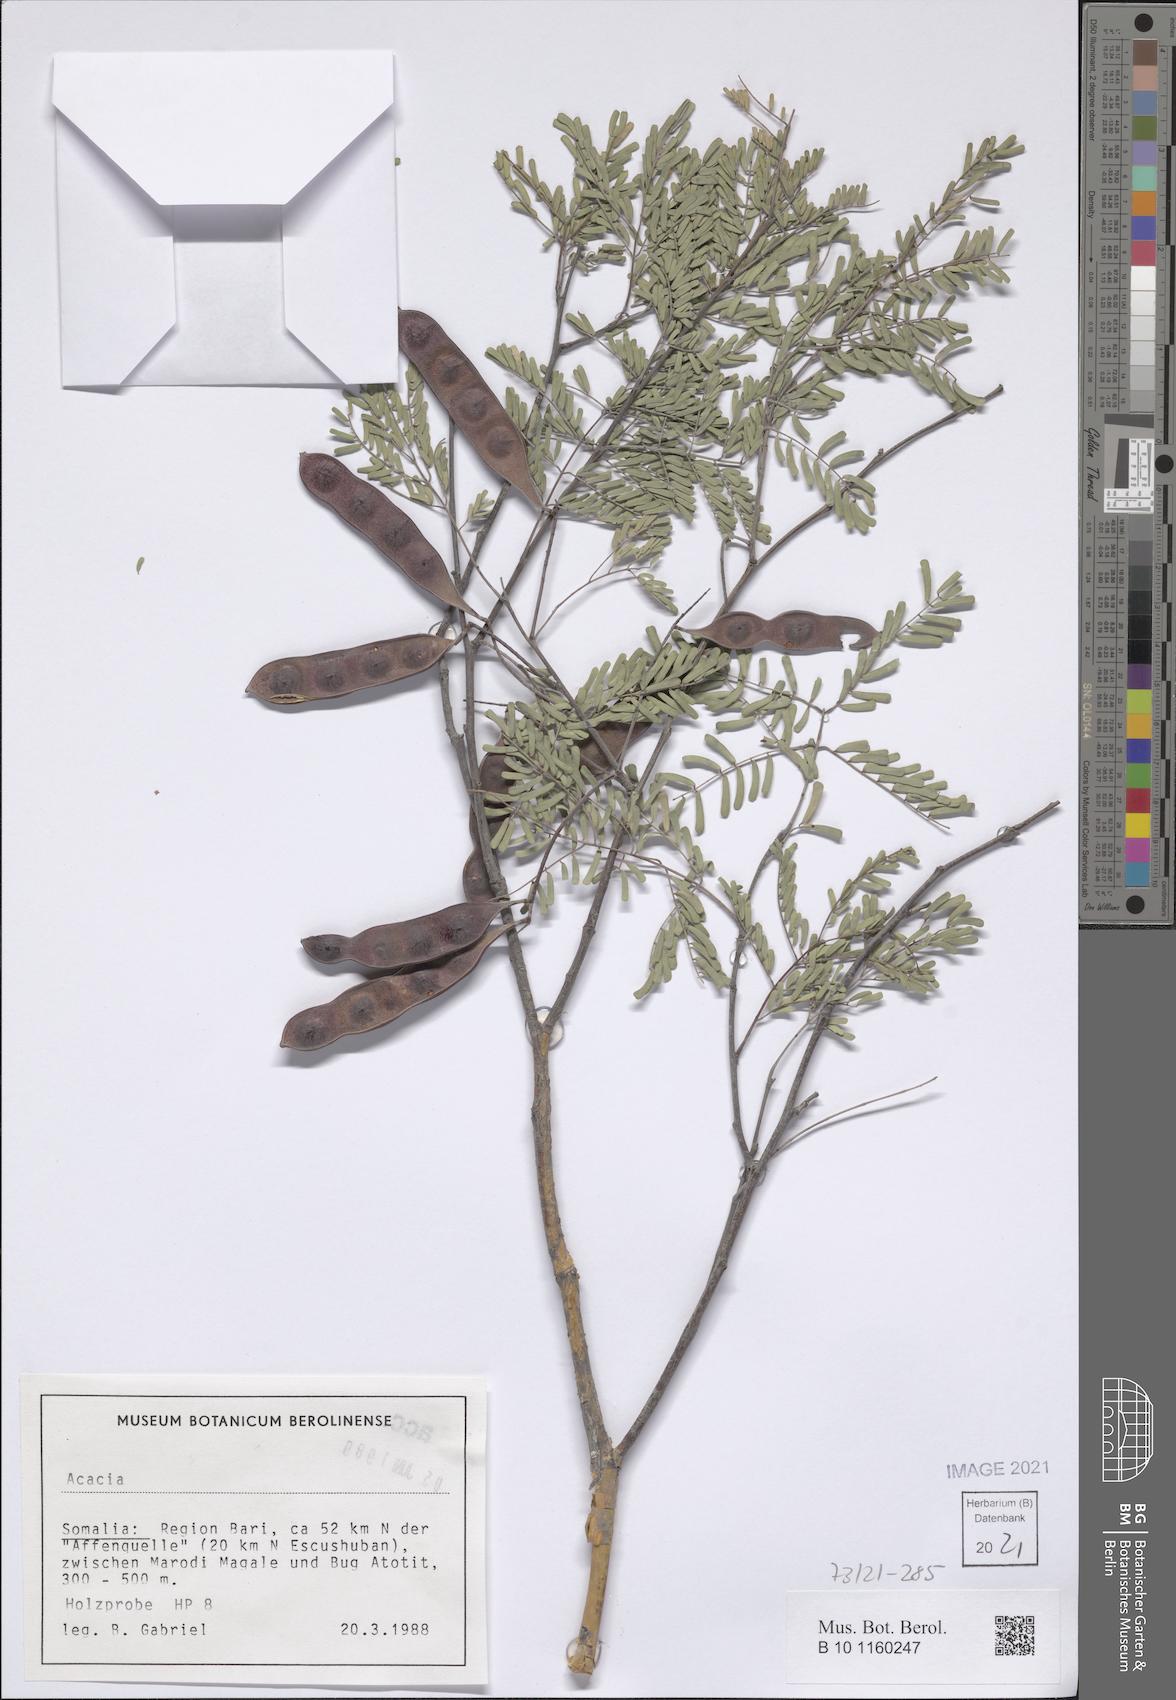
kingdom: Plantae
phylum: Tracheophyta
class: Magnoliopsida
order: Fabales
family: Fabaceae
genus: Acacia
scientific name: Acacia
